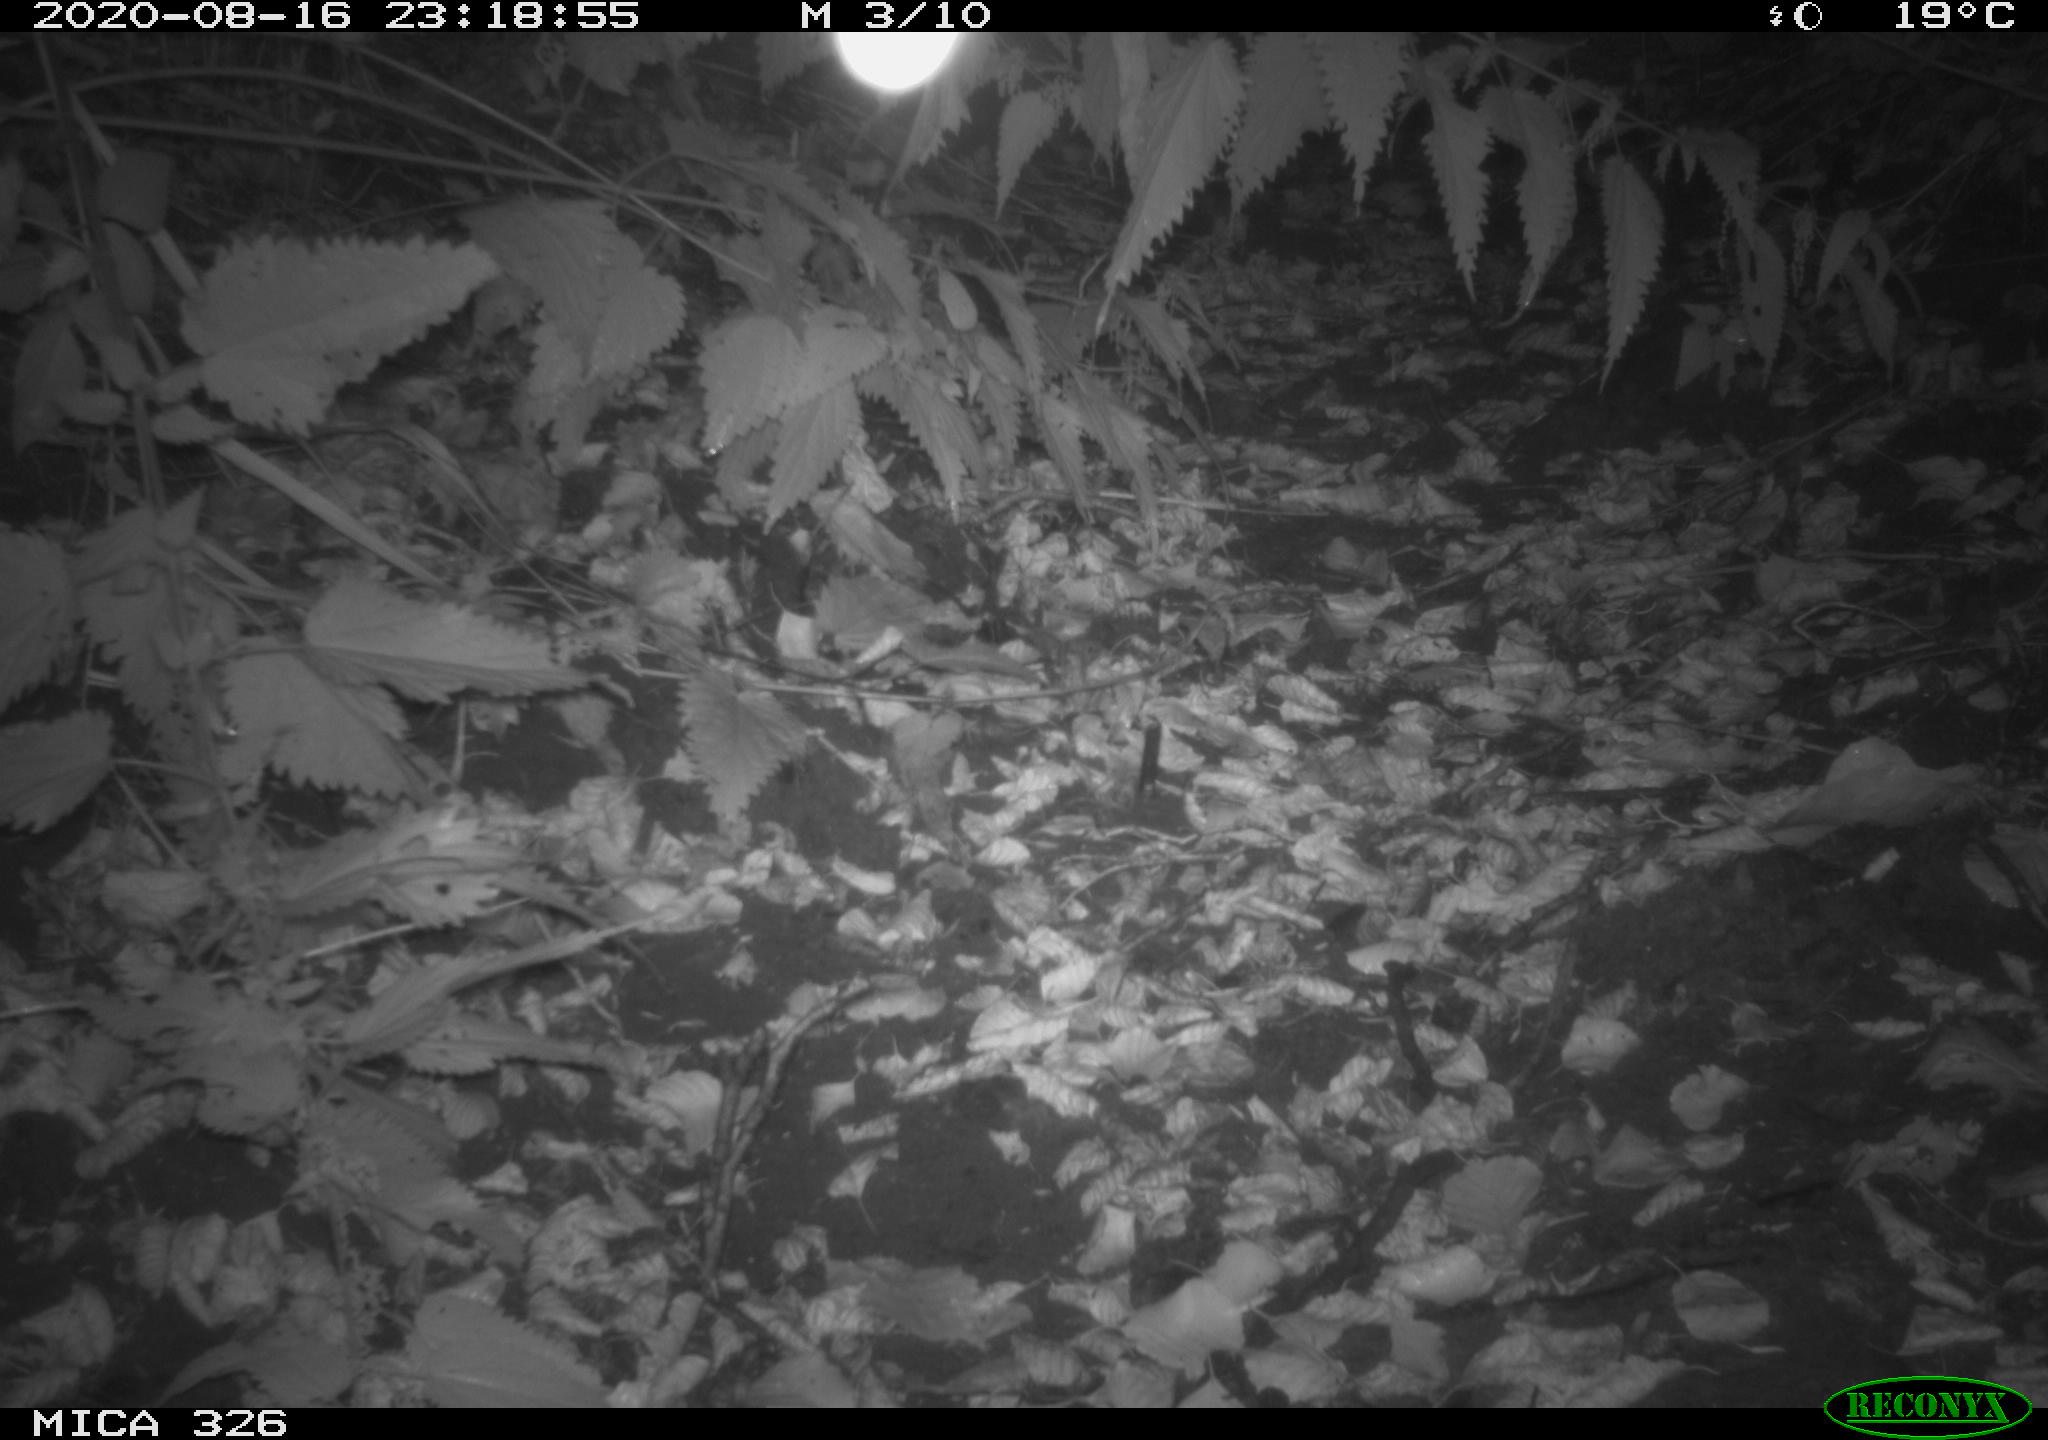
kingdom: Animalia
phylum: Chordata
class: Mammalia
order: Rodentia
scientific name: Rodentia
